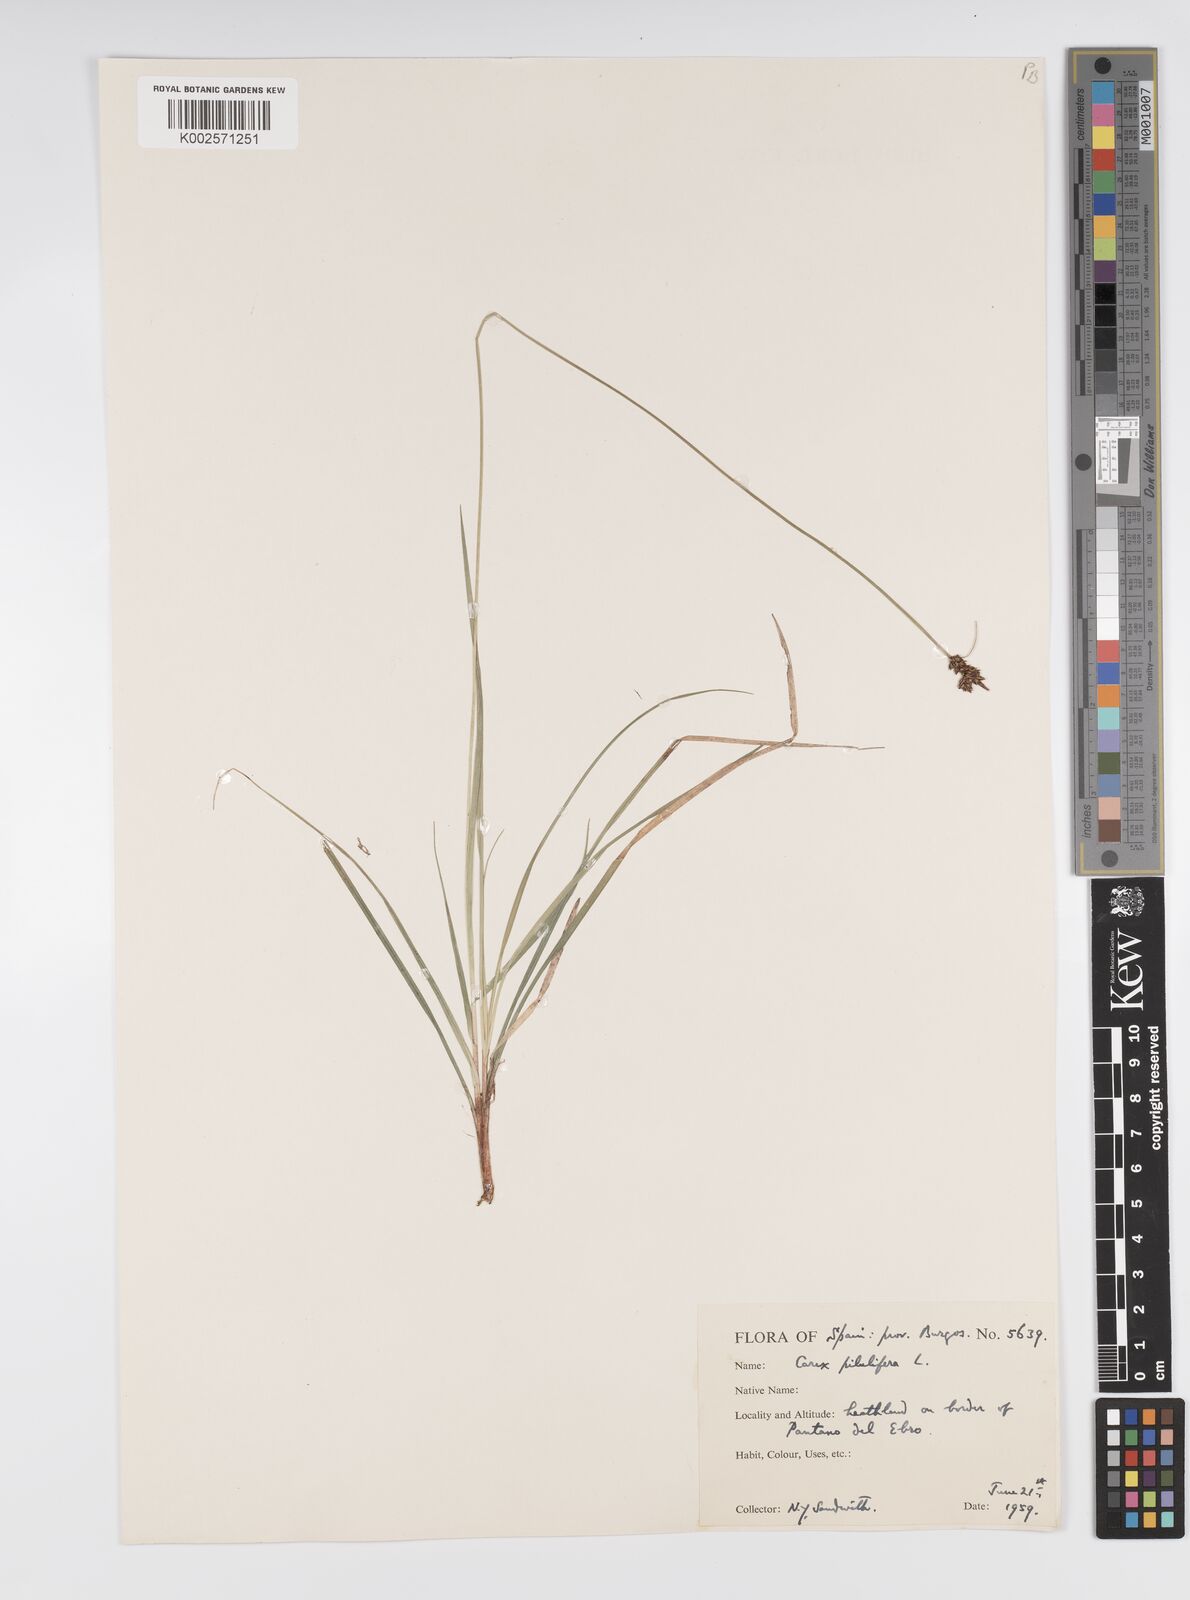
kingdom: Plantae
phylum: Tracheophyta
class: Liliopsida
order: Poales
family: Cyperaceae
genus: Carex
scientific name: Carex pilulifera
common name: Pill sedge
